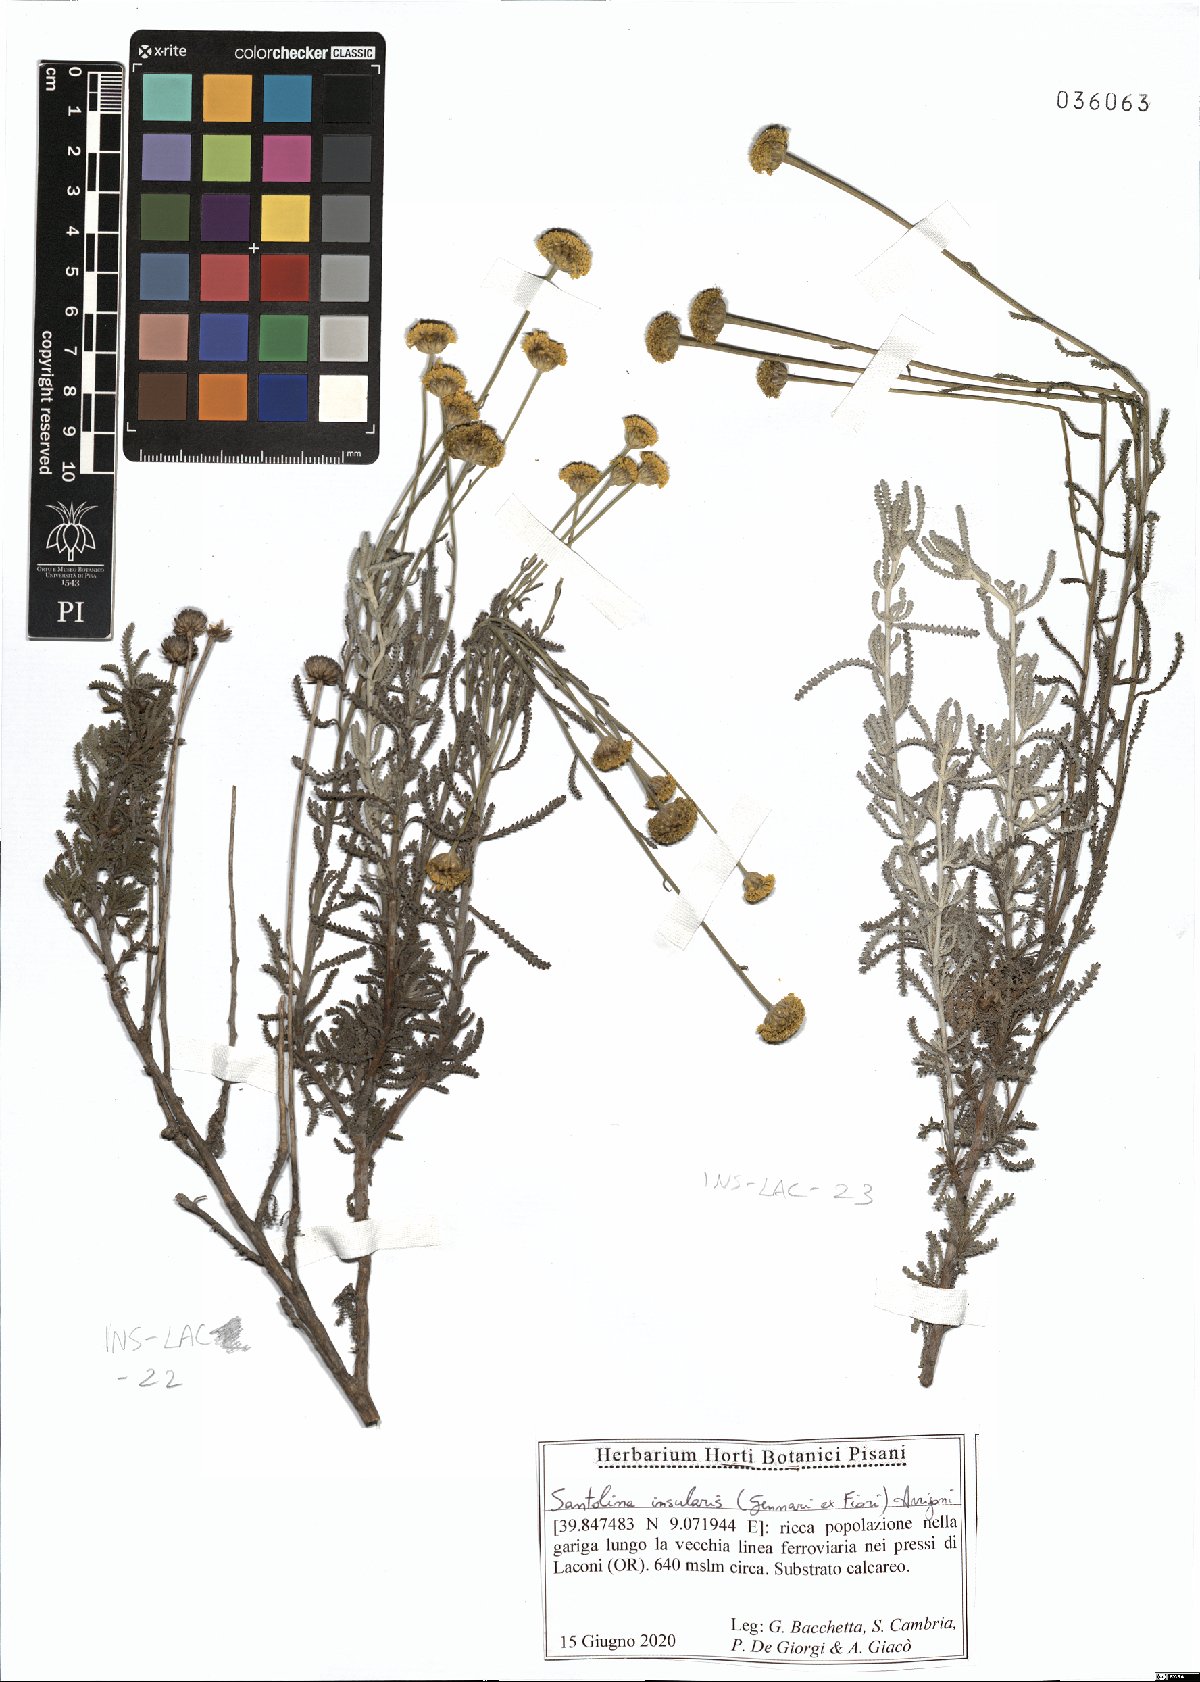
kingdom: Plantae
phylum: Tracheophyta
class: Magnoliopsida
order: Asterales
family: Asteraceae
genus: Santolina
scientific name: Santolina insularis
